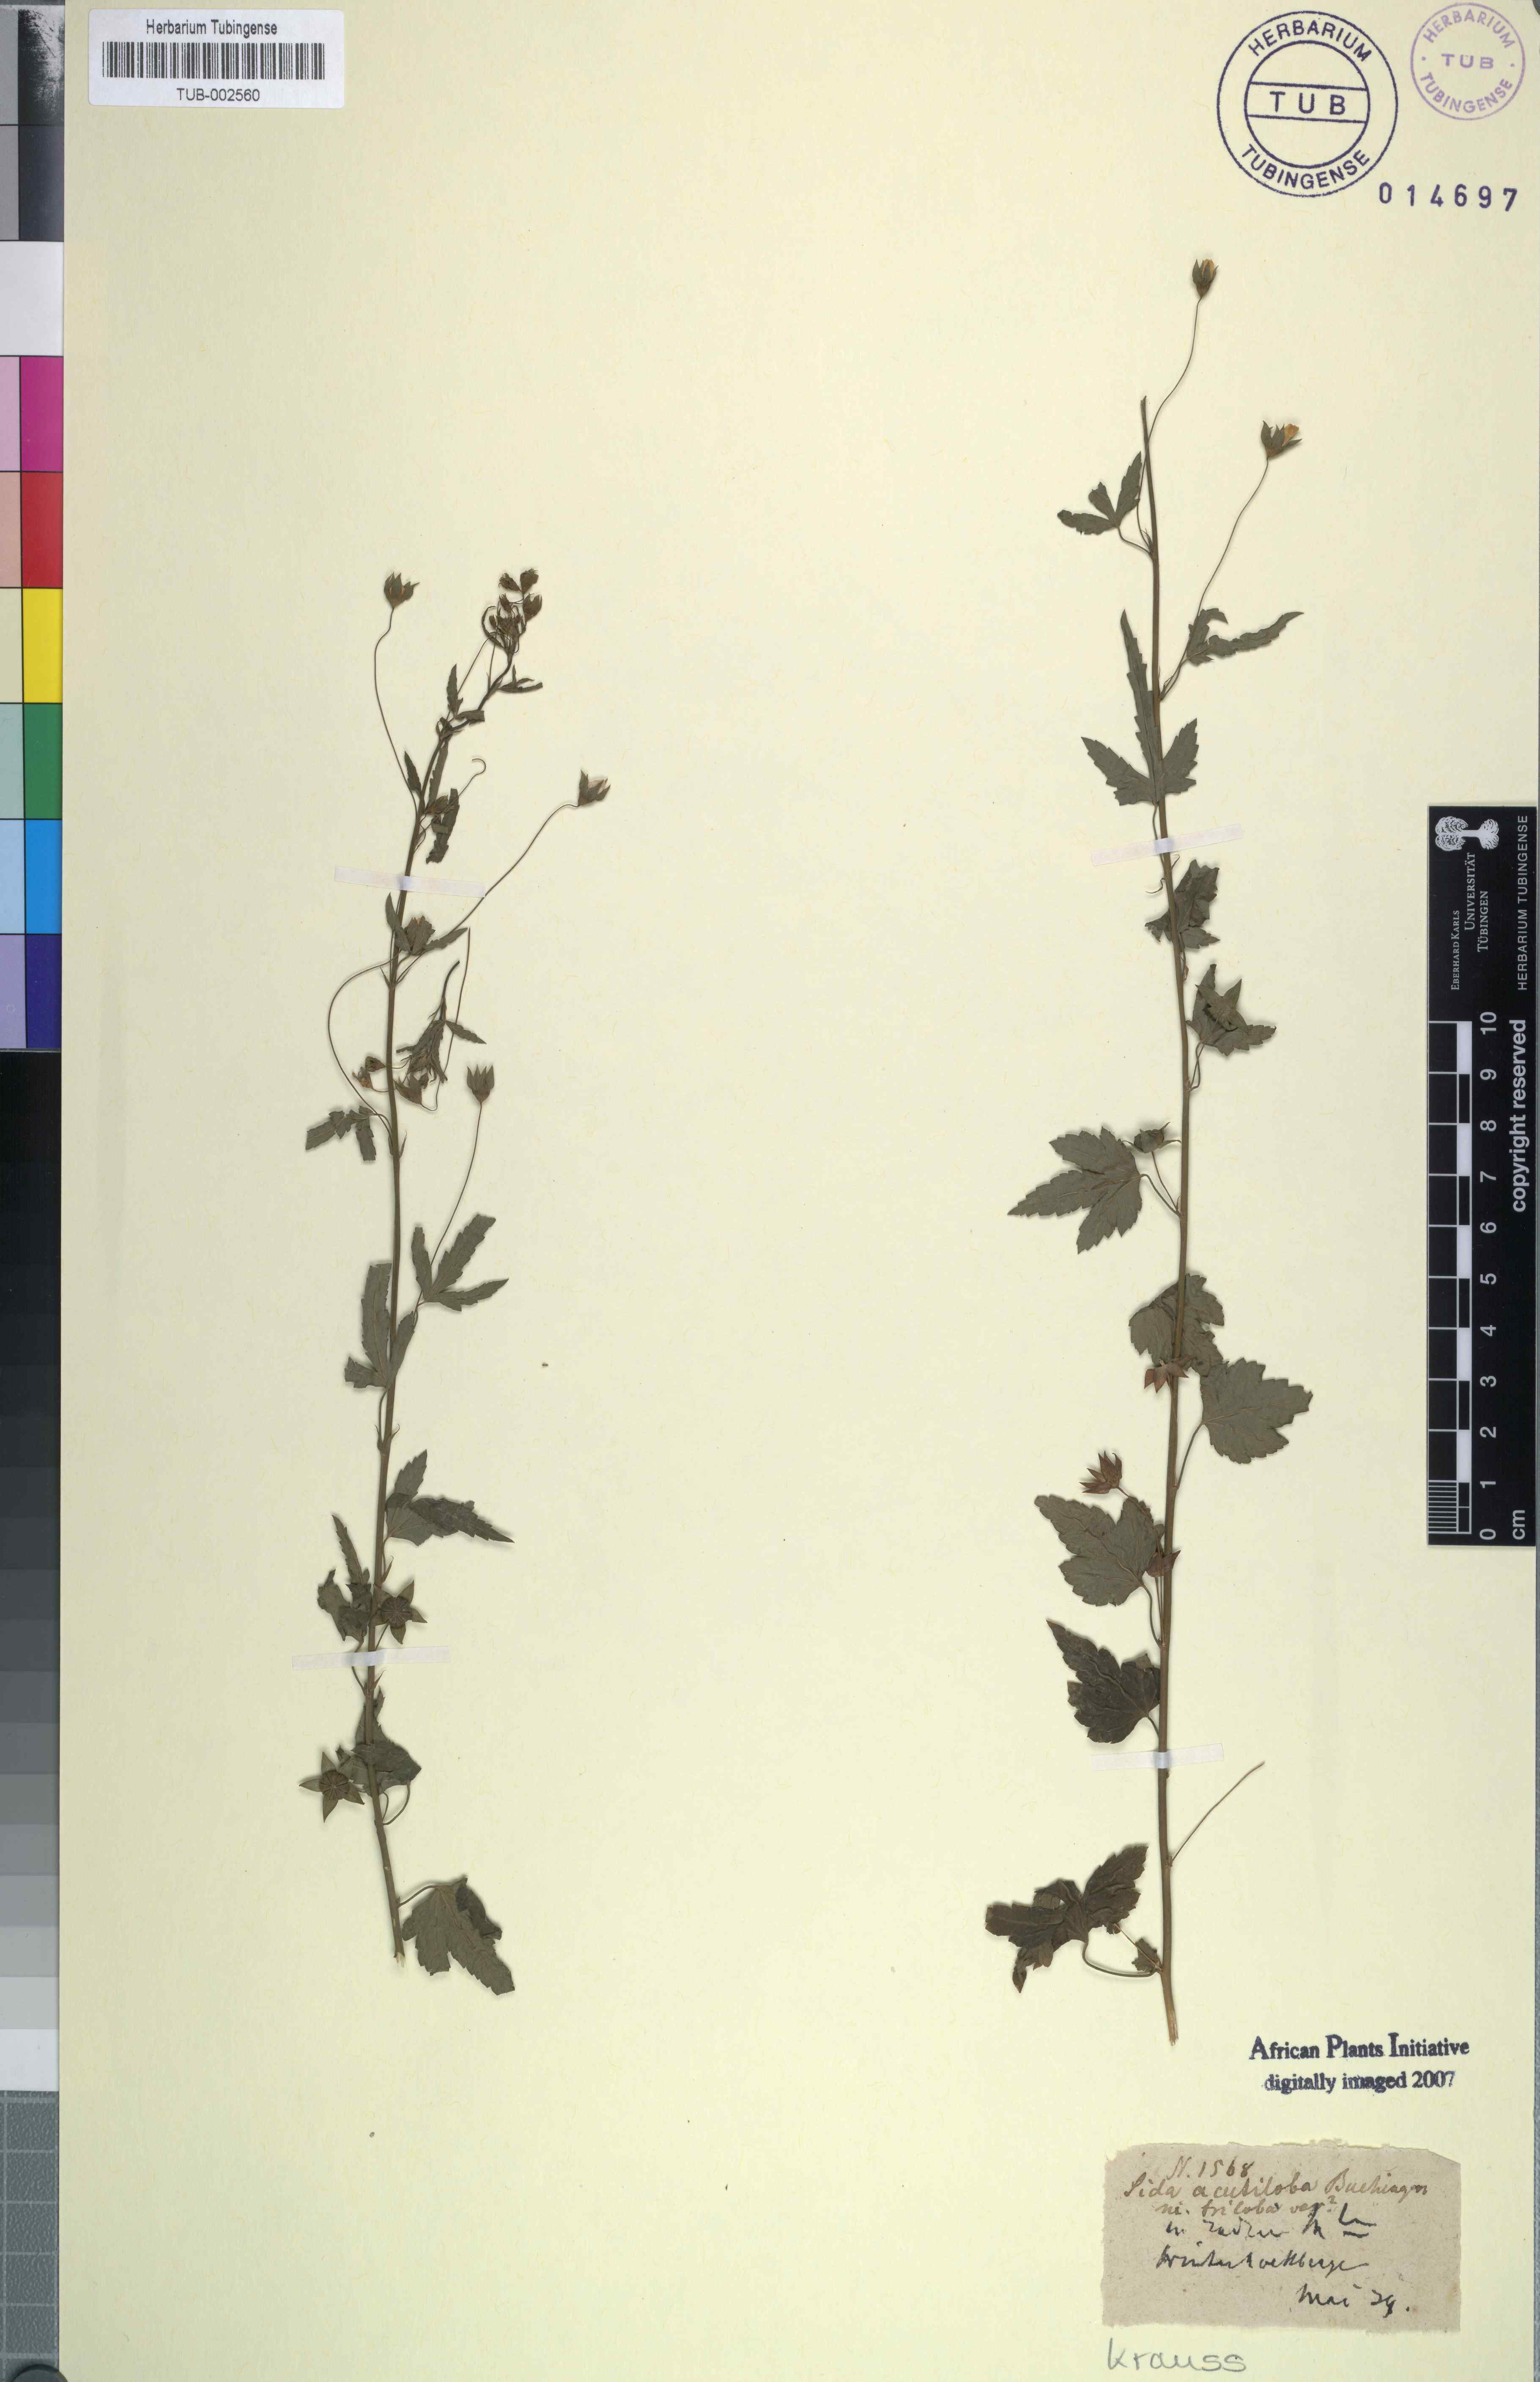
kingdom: Plantae
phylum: Tracheophyta
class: Magnoliopsida
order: Malvales
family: Malvaceae
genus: Sida
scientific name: Sida
